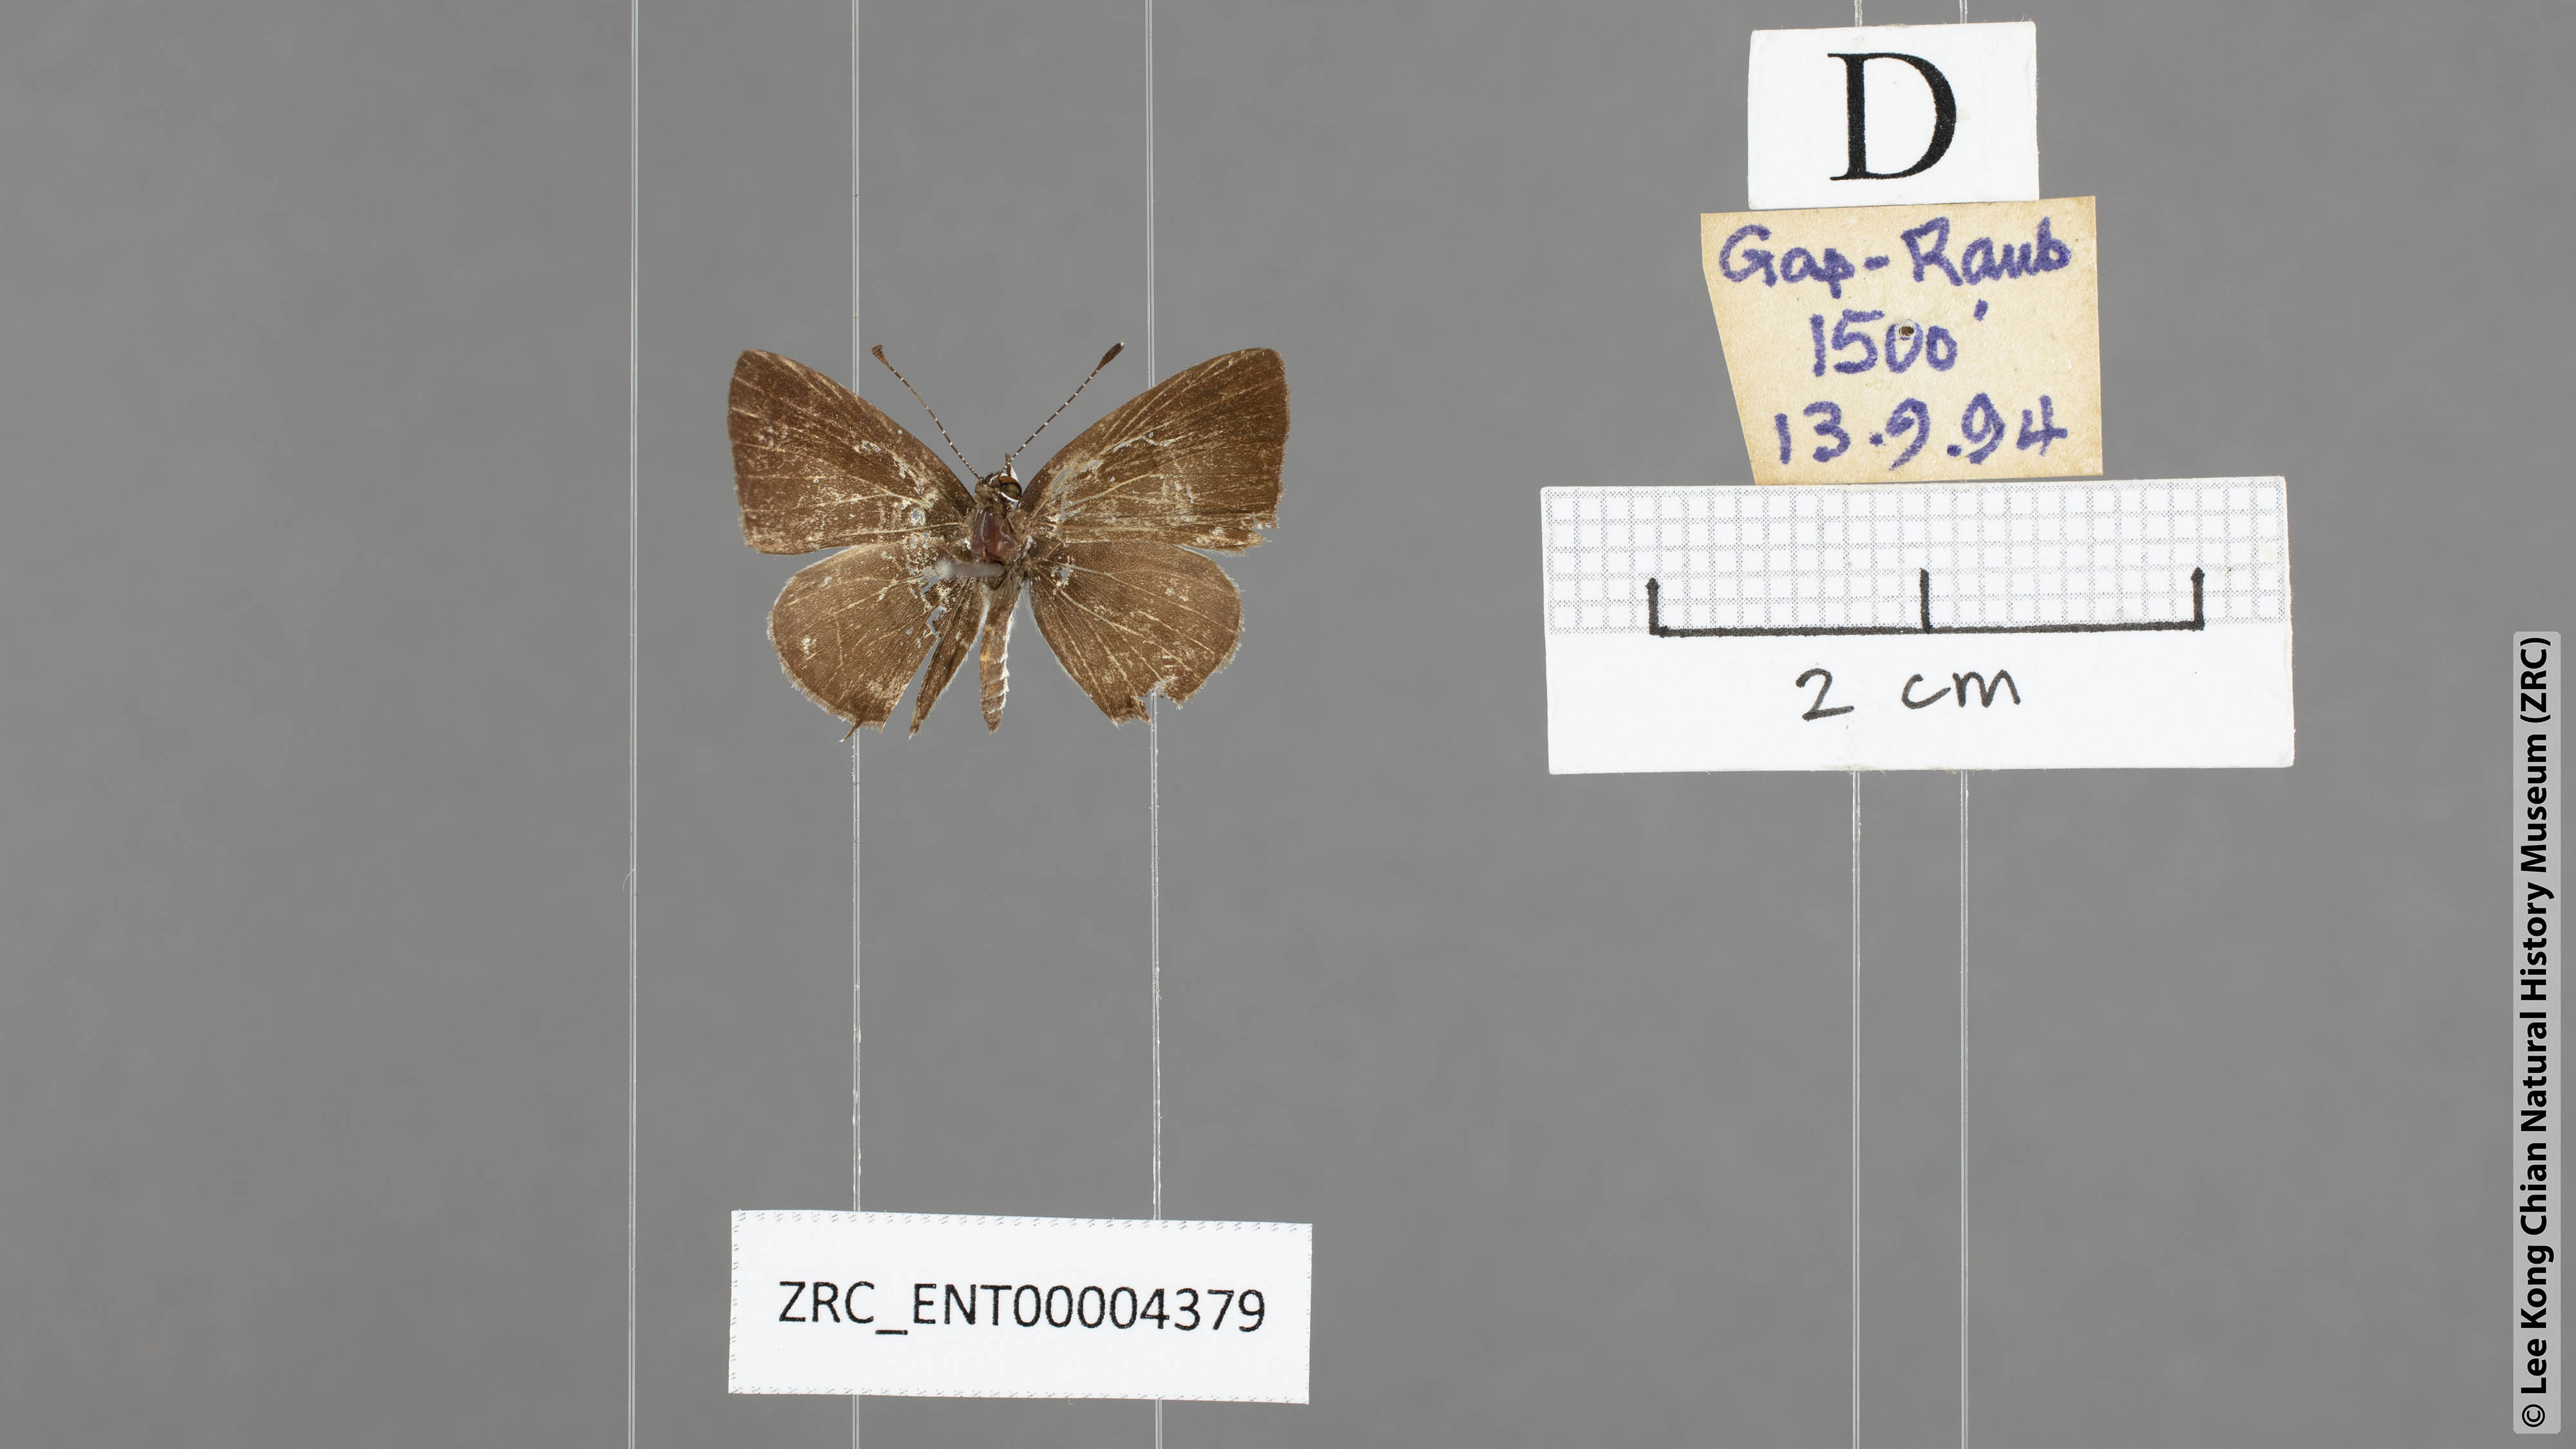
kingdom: Animalia
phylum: Arthropoda
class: Insecta
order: Lepidoptera
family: Lycaenidae
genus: Megisba
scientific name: Megisba malaya
